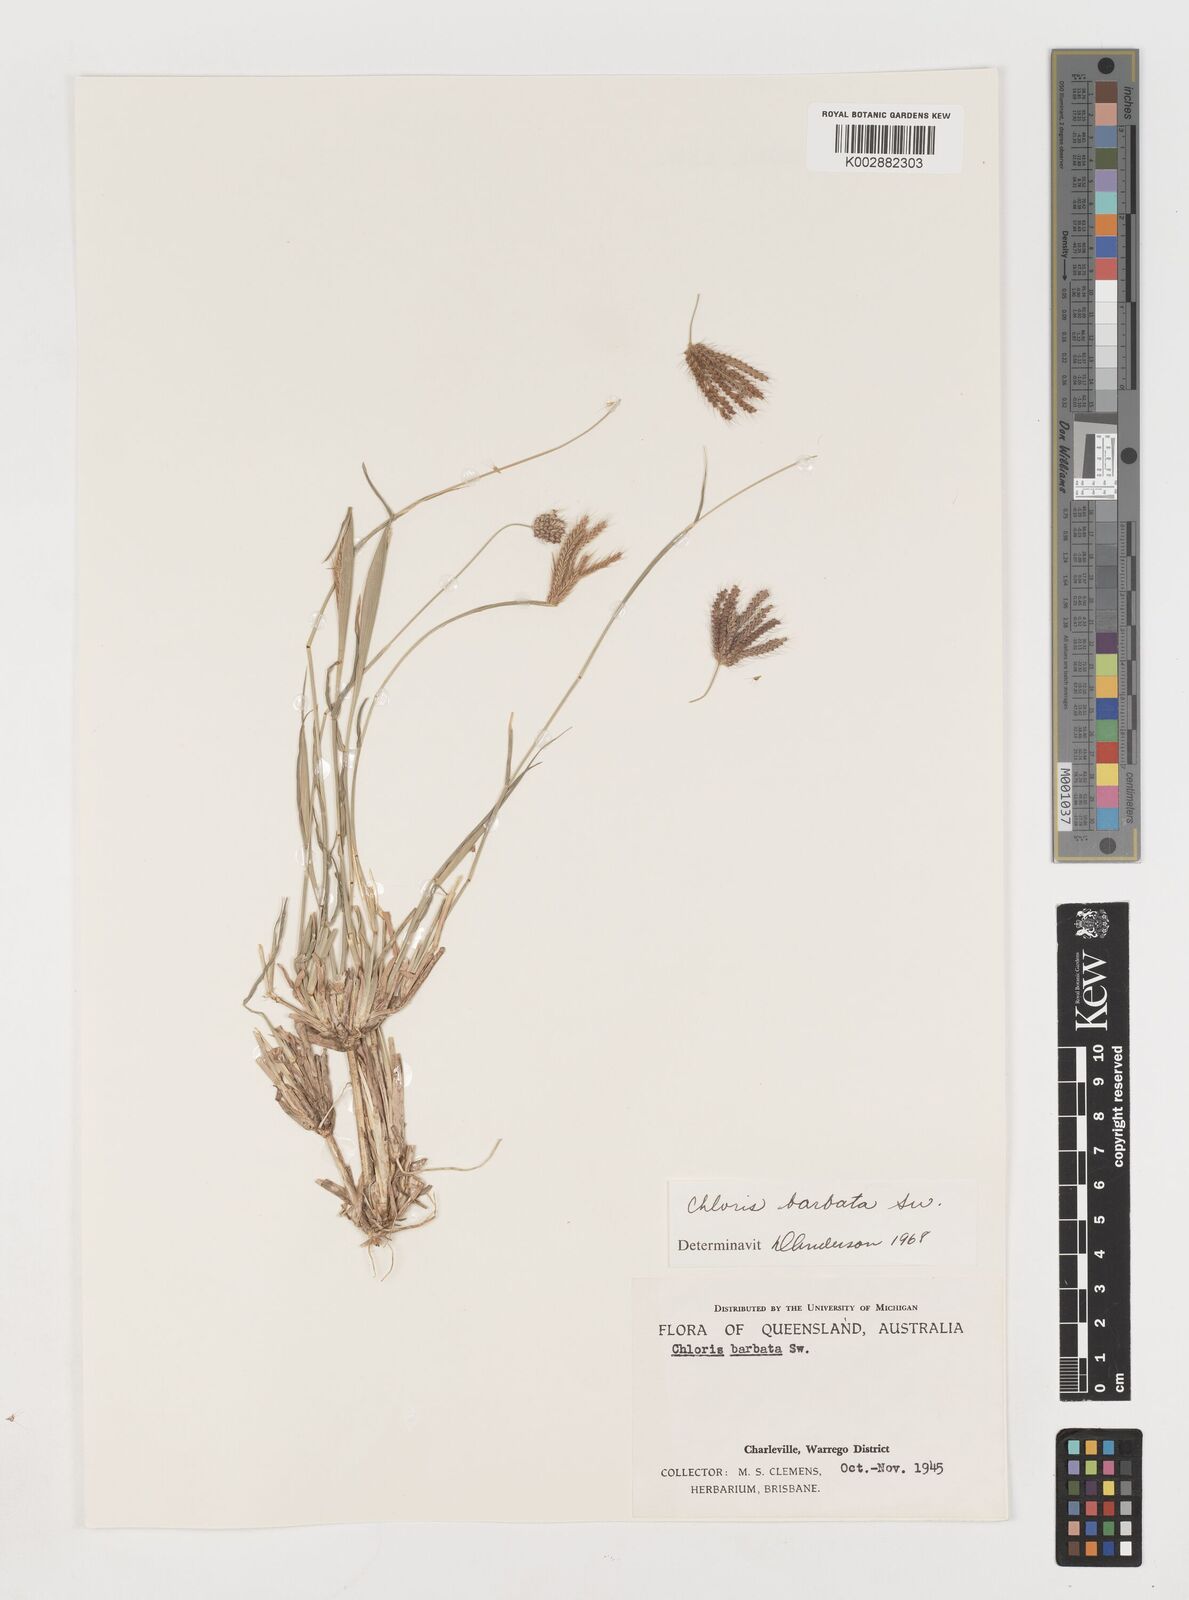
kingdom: Plantae
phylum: Tracheophyta
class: Liliopsida
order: Poales
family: Poaceae
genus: Chloris
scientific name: Chloris barbata
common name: Swollen fingergrass
